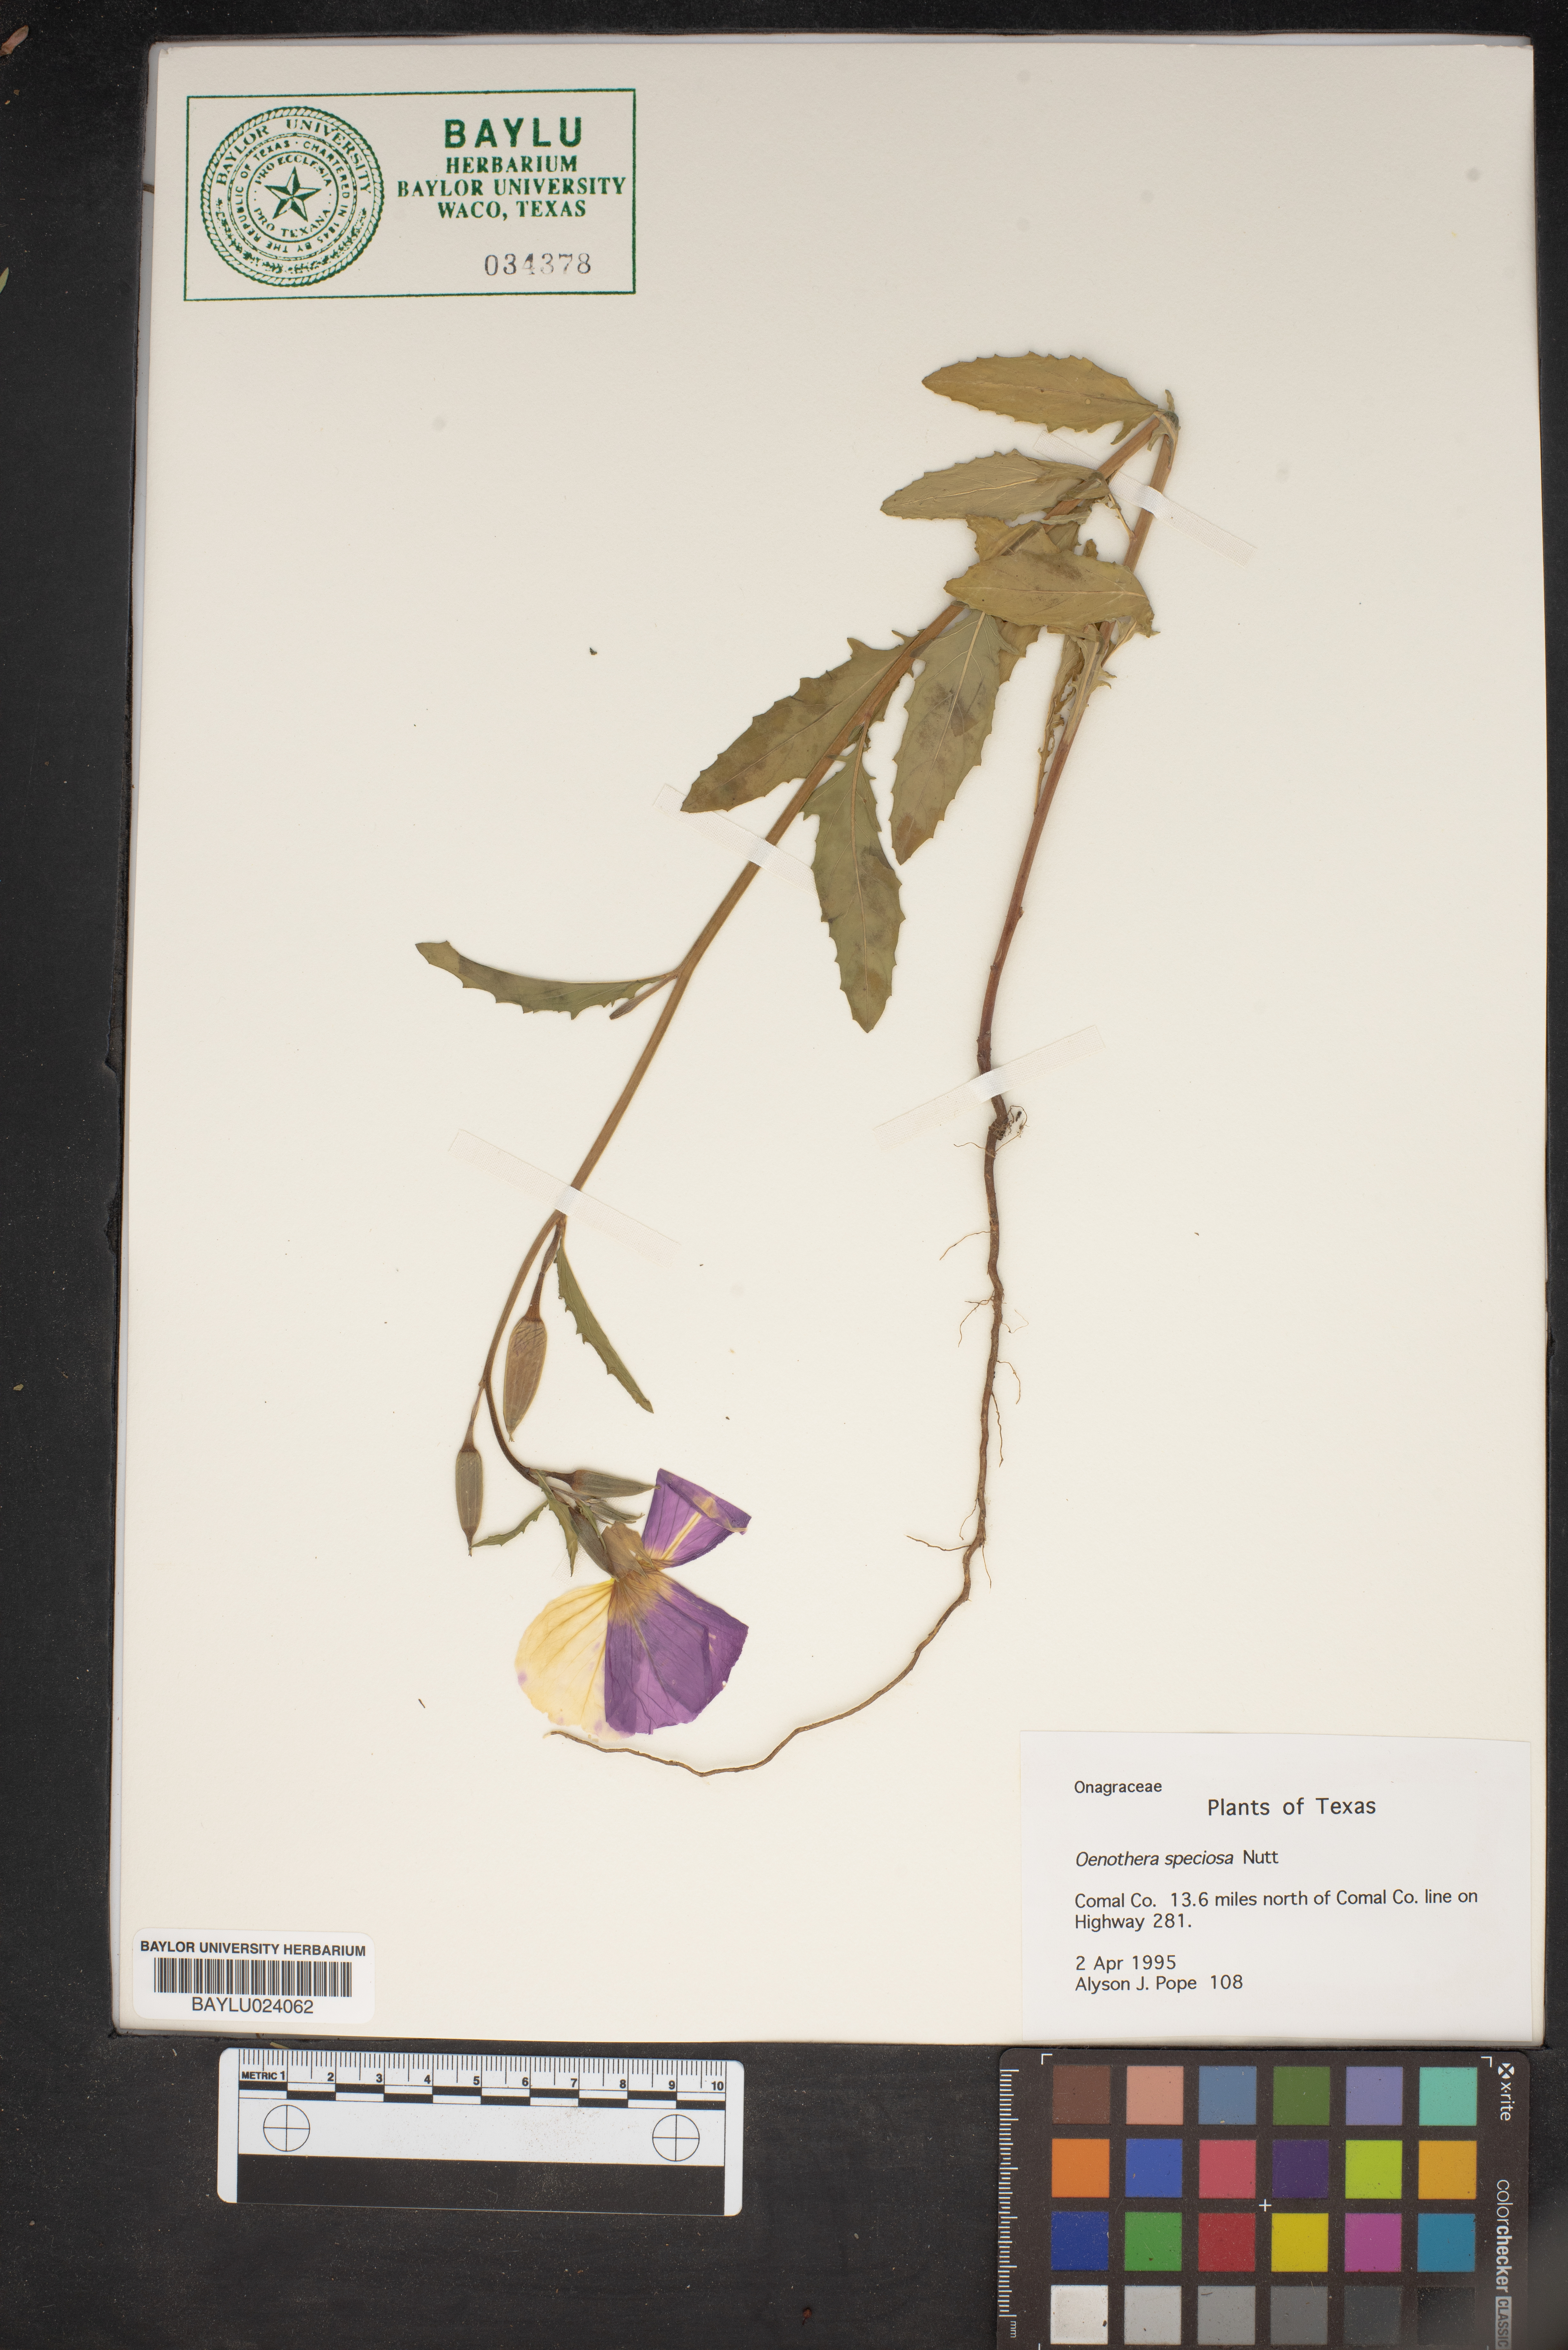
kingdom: Plantae
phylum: Tracheophyta
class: Magnoliopsida
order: Myrtales
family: Onagraceae
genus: Oenothera
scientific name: Oenothera speciosa
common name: White evening-primrose
